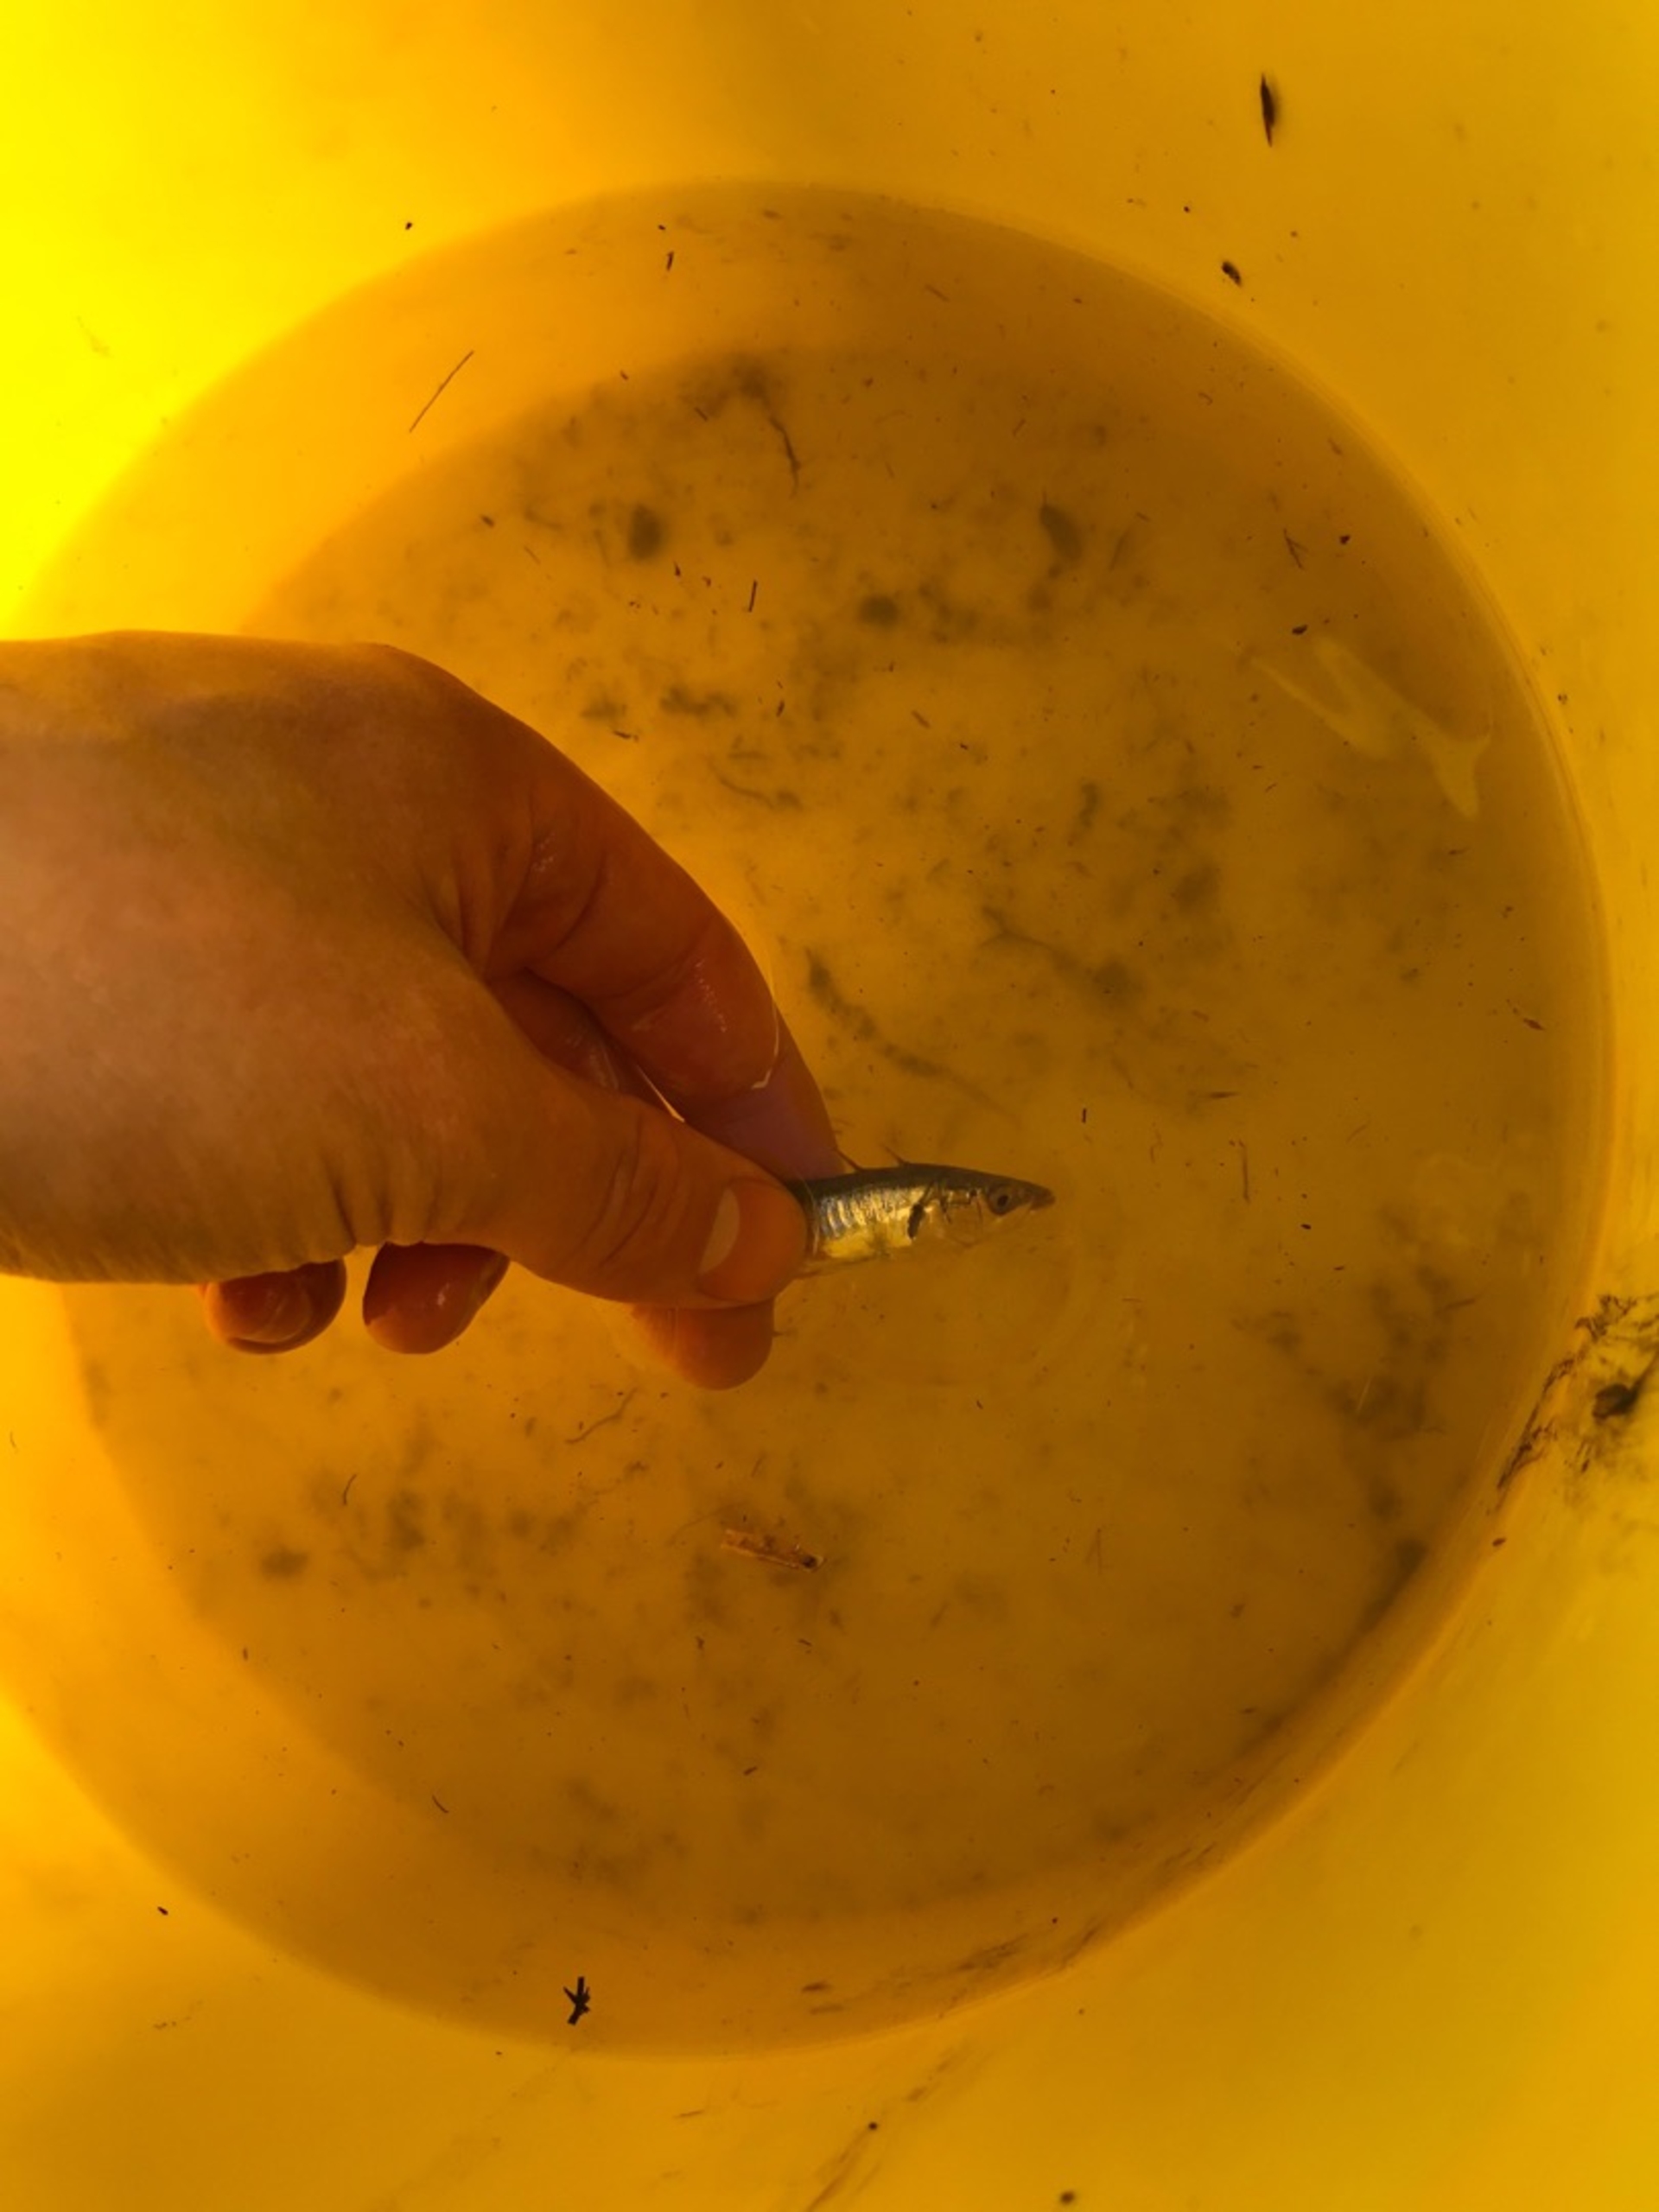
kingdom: Animalia
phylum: Chordata
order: Gasterosteiformes
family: Gasterosteidae
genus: Gasterosteus
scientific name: Gasterosteus aculeatus
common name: Trepigget hundestejle
